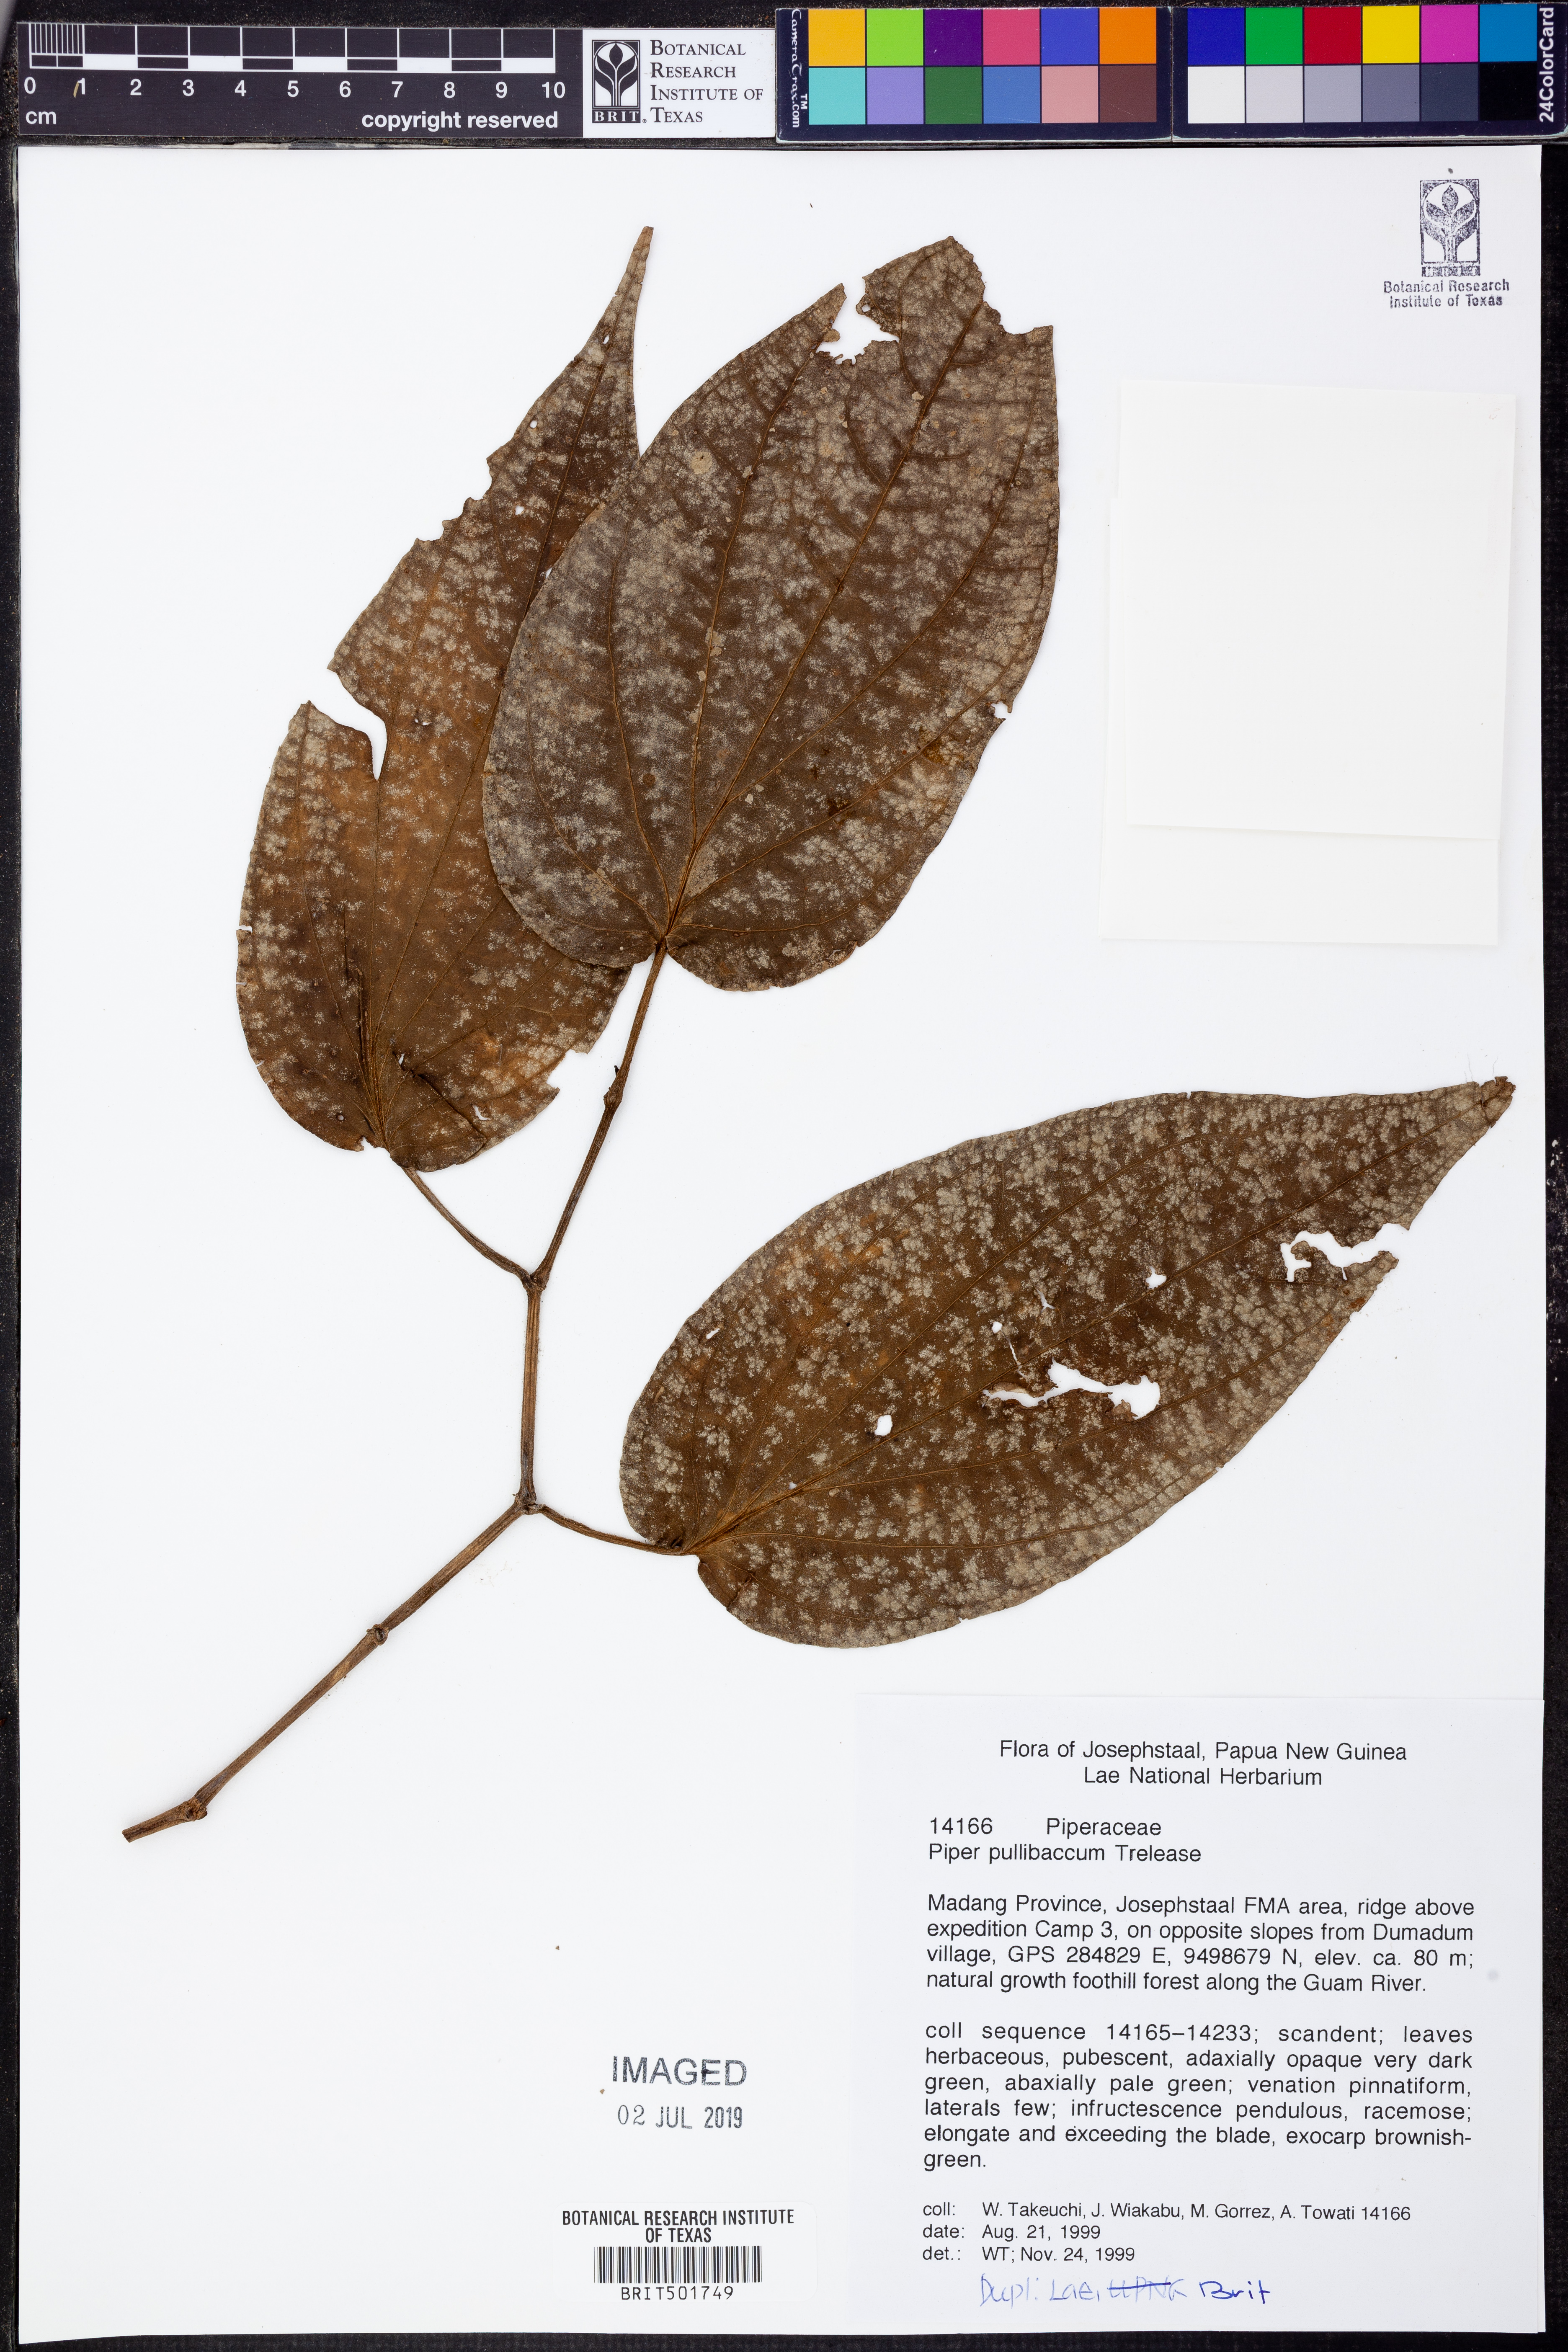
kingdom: Plantae
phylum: Tracheophyta
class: Magnoliopsida
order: Piperales
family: Piperaceae
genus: Piper
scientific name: Piper pullibaccum
